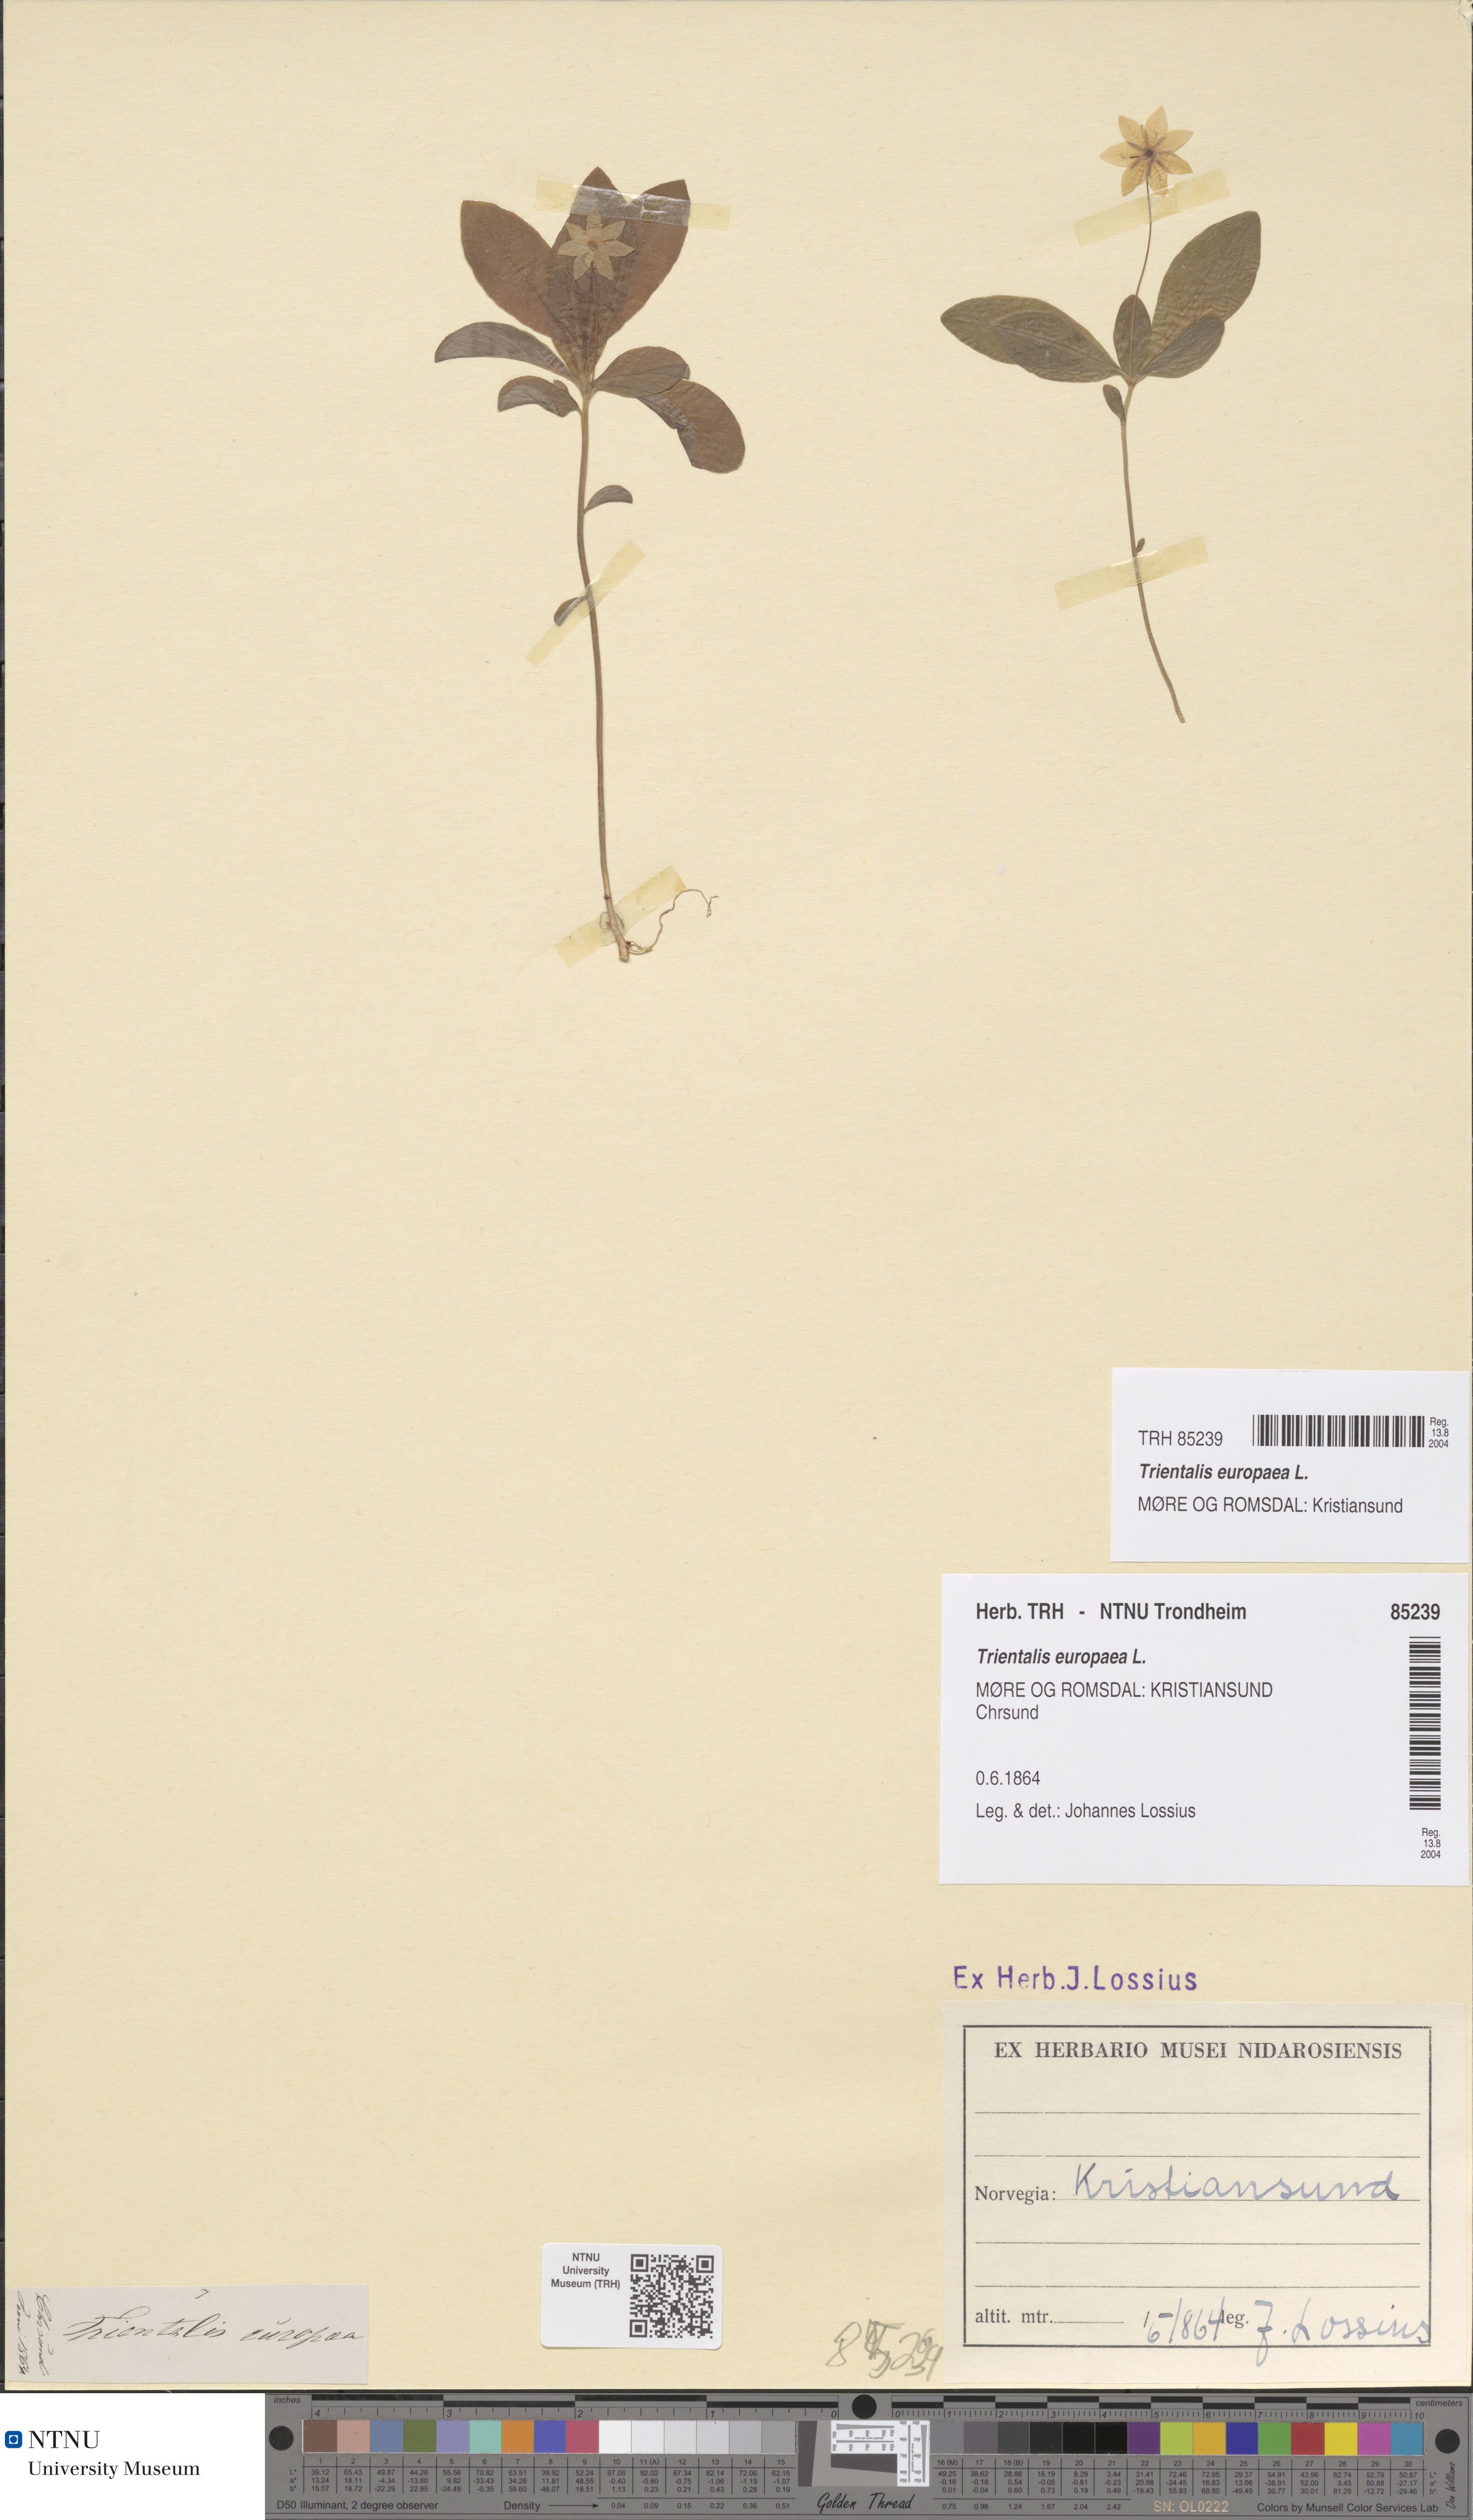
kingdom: Plantae
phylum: Tracheophyta
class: Magnoliopsida
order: Ericales
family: Primulaceae
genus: Lysimachia
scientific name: Lysimachia europaea
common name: Arctic starflower
